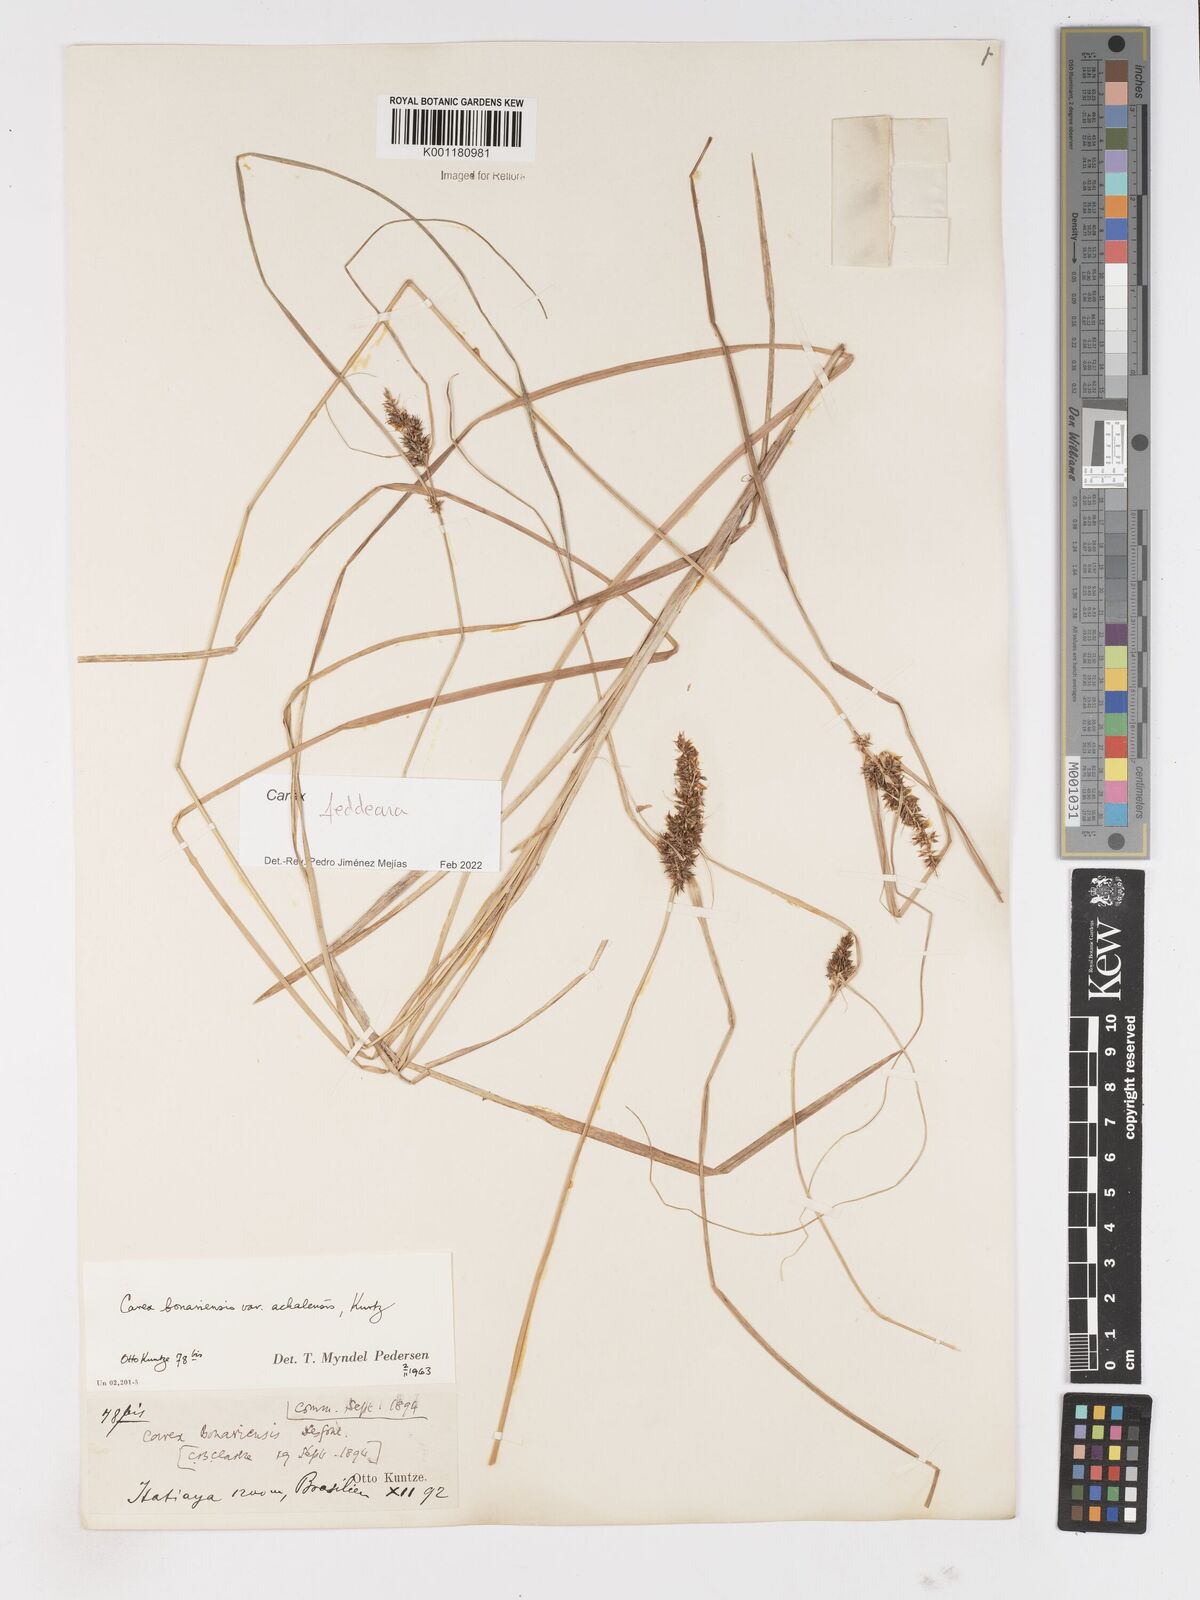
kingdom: Plantae
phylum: Tracheophyta
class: Liliopsida
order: Poales
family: Cyperaceae
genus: Carex
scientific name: Carex bonariensis
